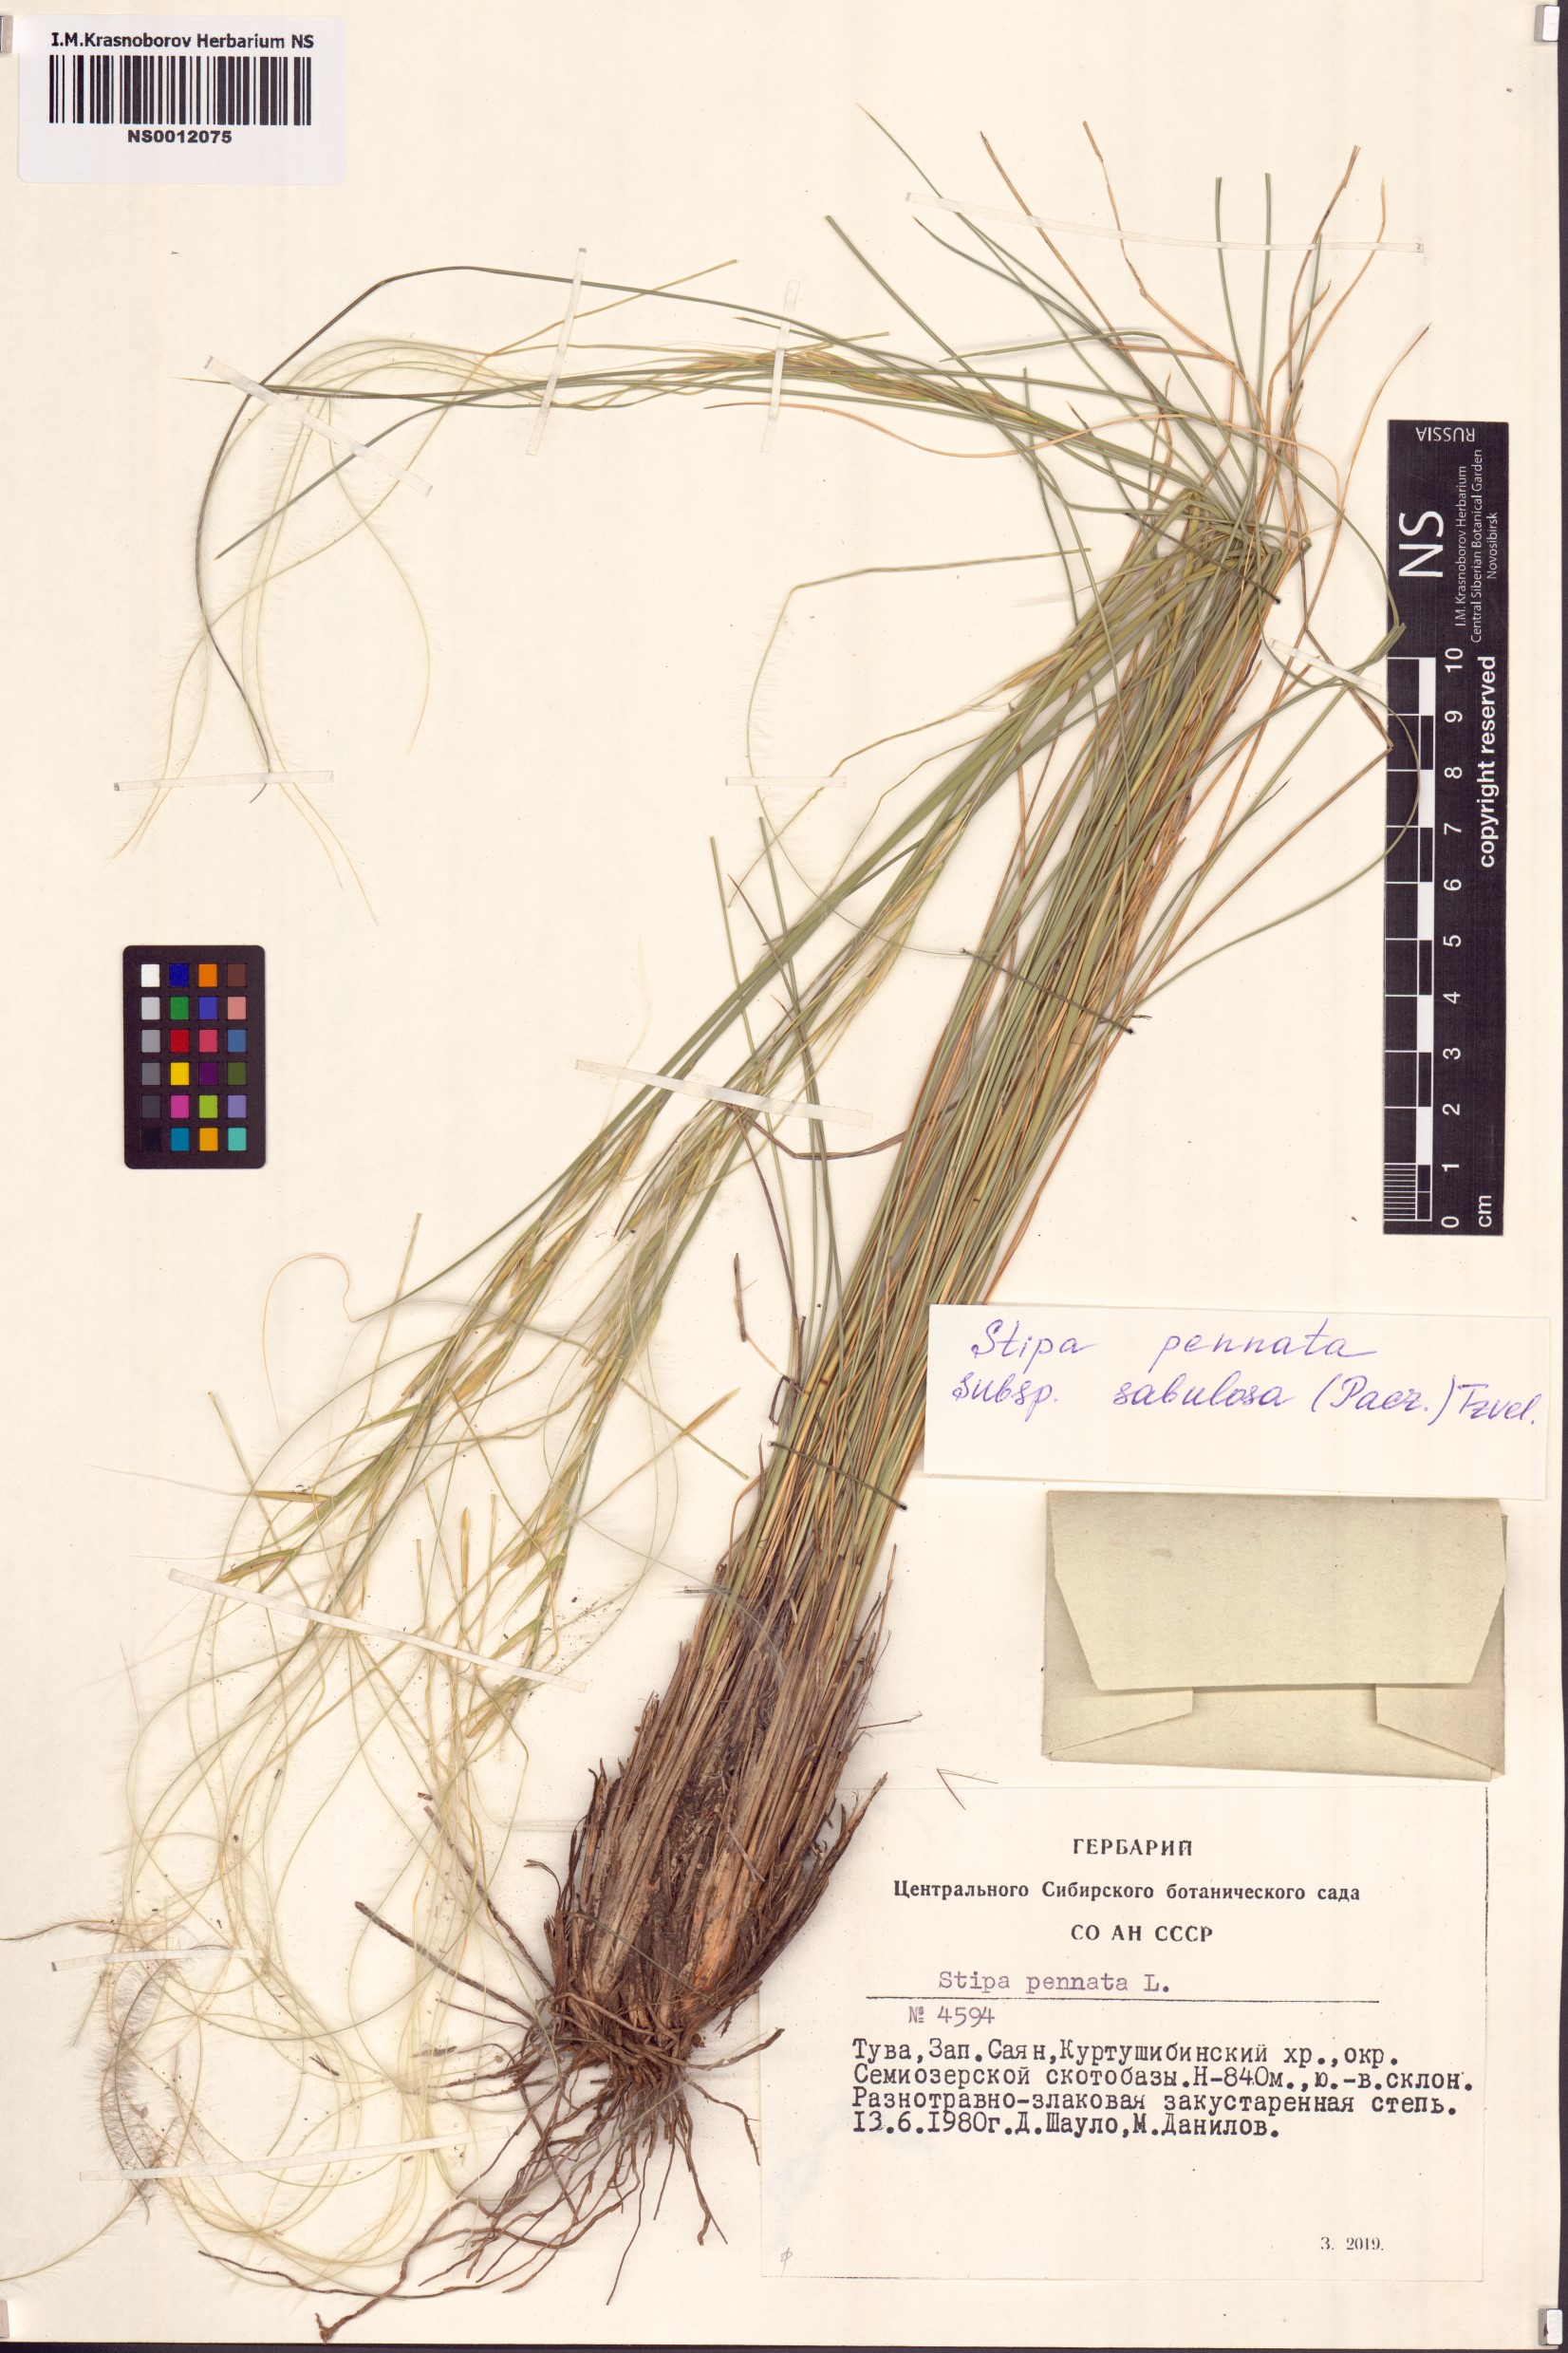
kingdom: Plantae
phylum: Tracheophyta
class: Liliopsida
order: Poales
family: Poaceae
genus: Stipa
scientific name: Stipa borysthenica
